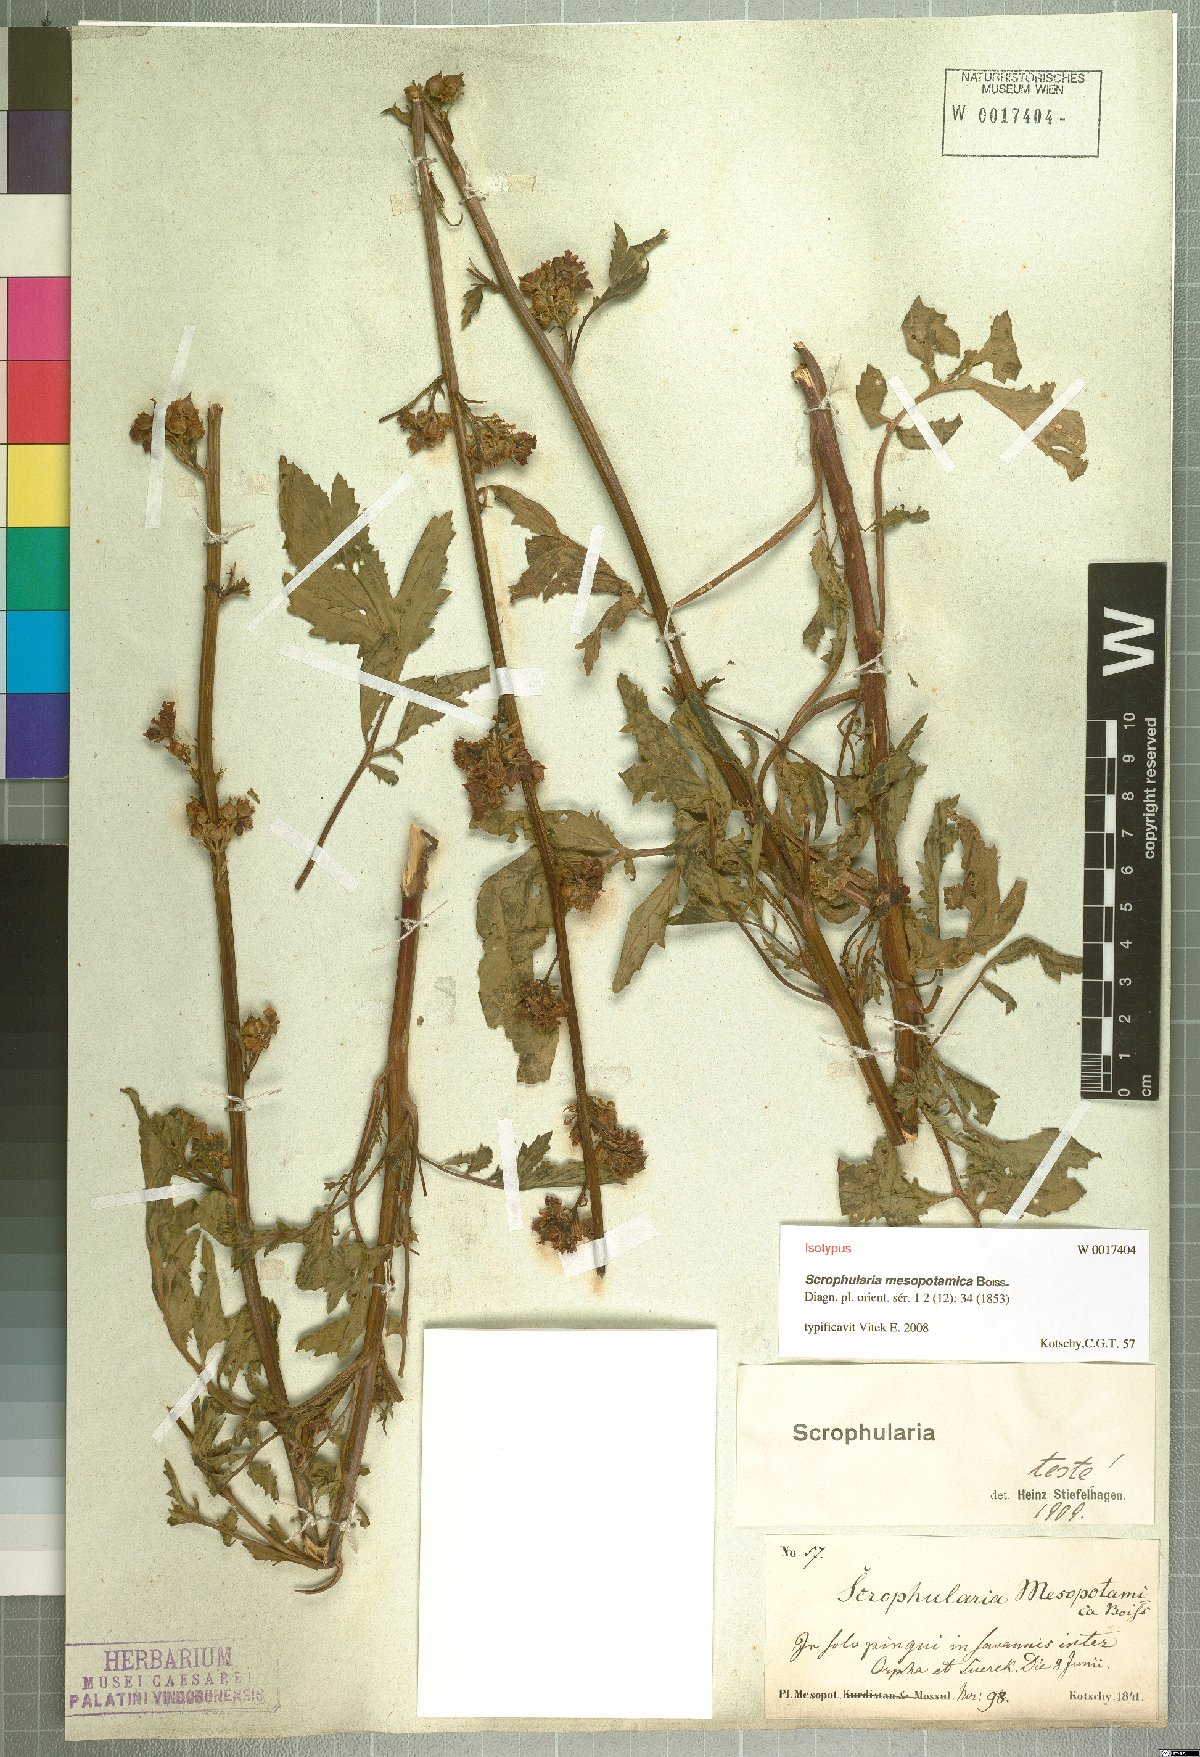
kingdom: Plantae
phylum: Tracheophyta
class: Magnoliopsida
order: Lamiales
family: Scrophulariaceae
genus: Scrophularia
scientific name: Scrophularia mesopotamica
